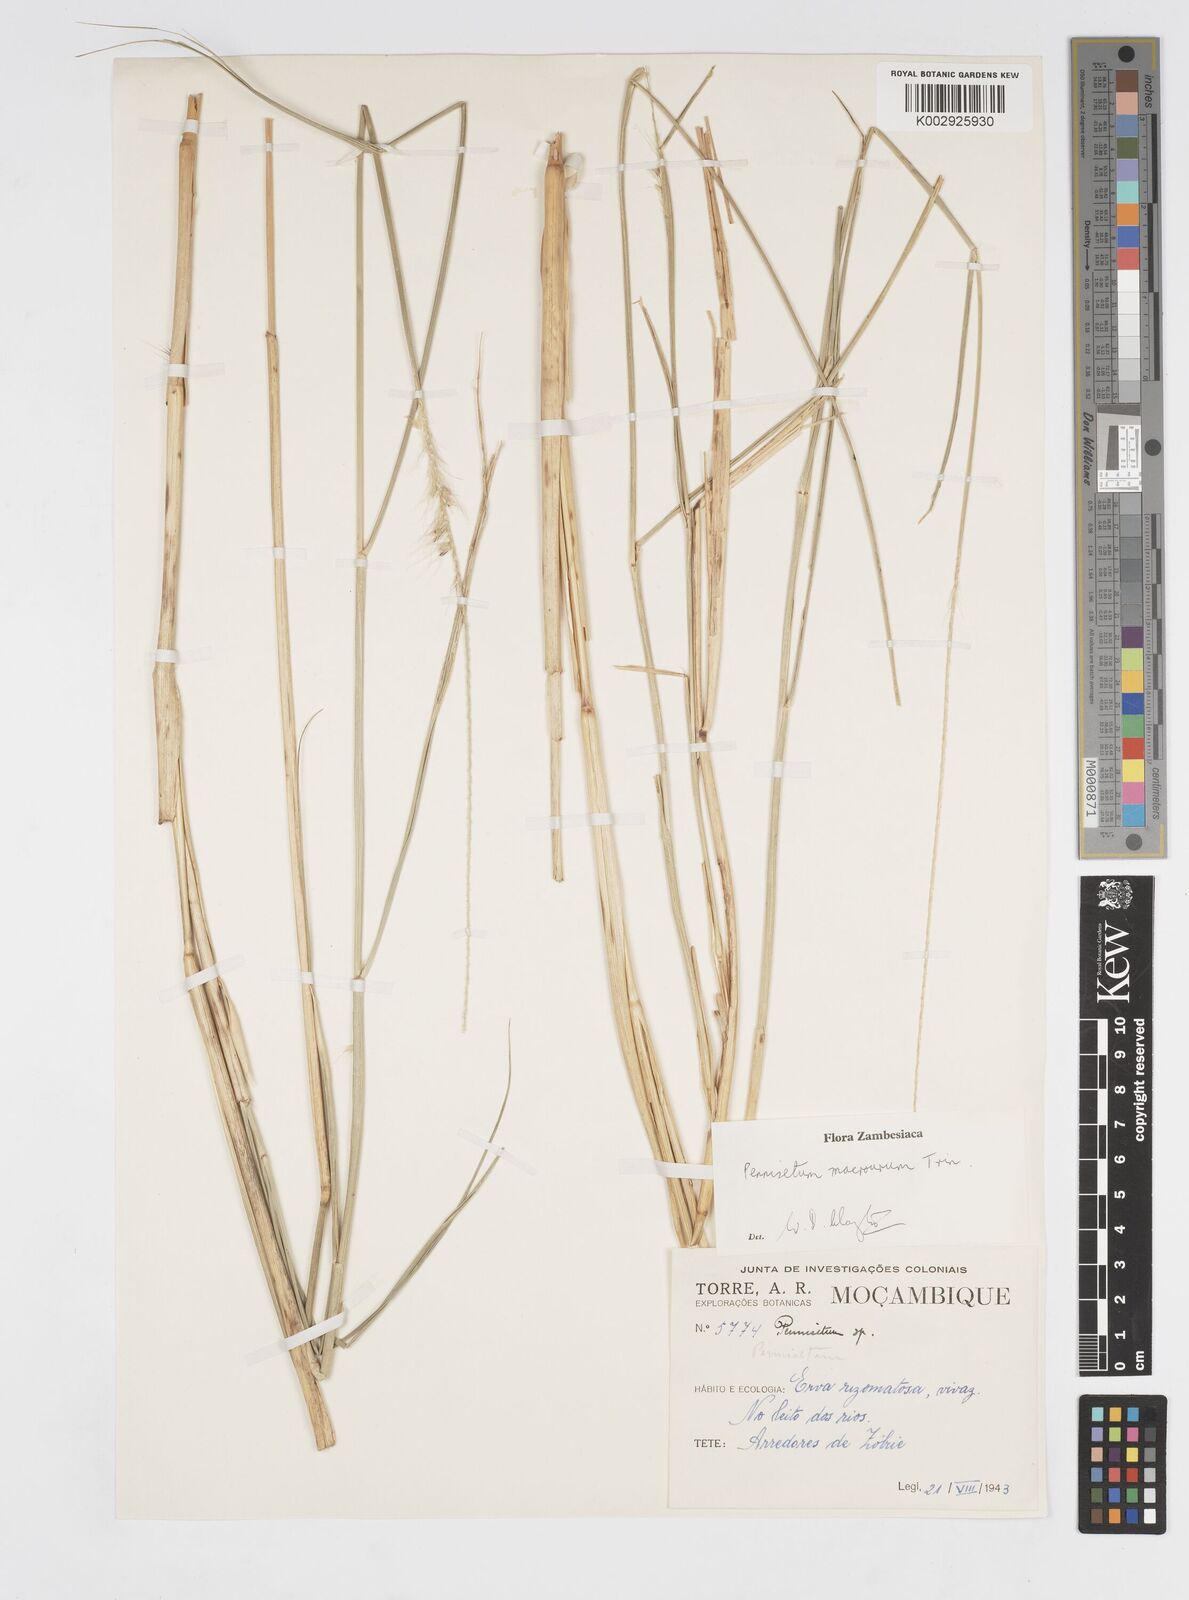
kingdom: Plantae
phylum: Tracheophyta
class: Liliopsida
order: Poales
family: Poaceae
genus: Cenchrus
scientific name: Cenchrus caudatus
